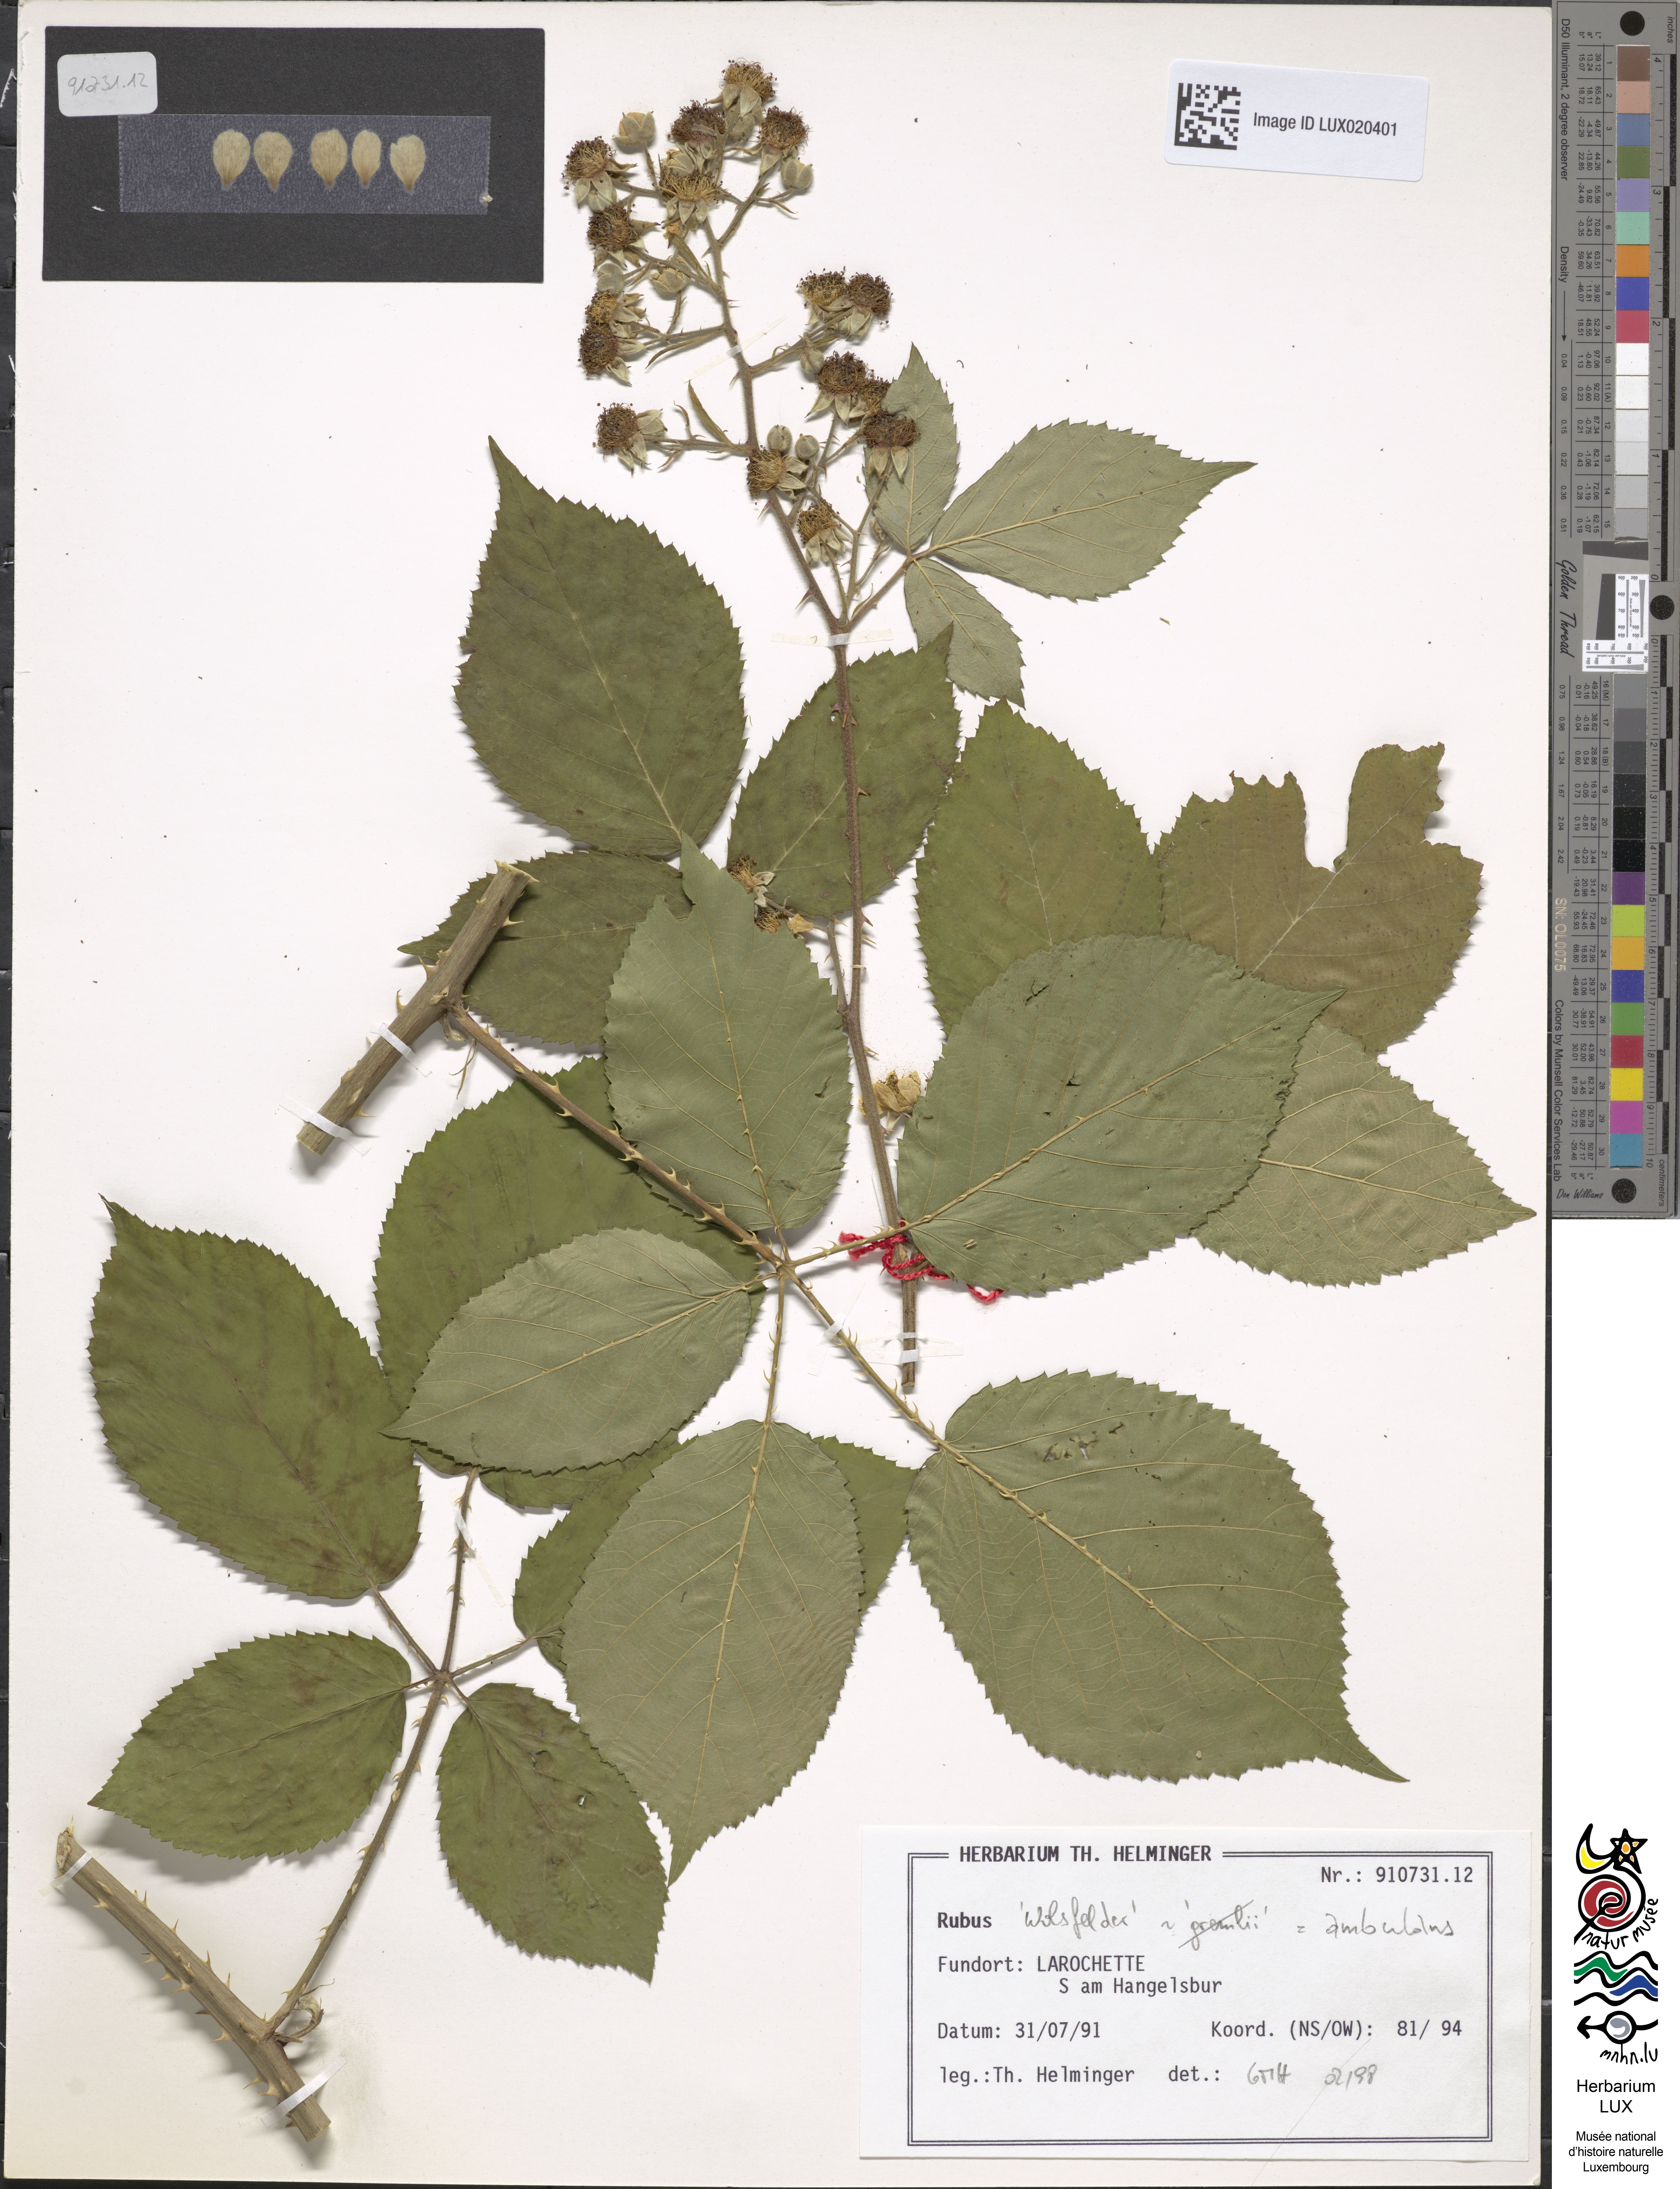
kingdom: Plantae
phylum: Tracheophyta
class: Magnoliopsida
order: Rosales
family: Rosaceae
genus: Rubus
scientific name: Rubus gremlii
